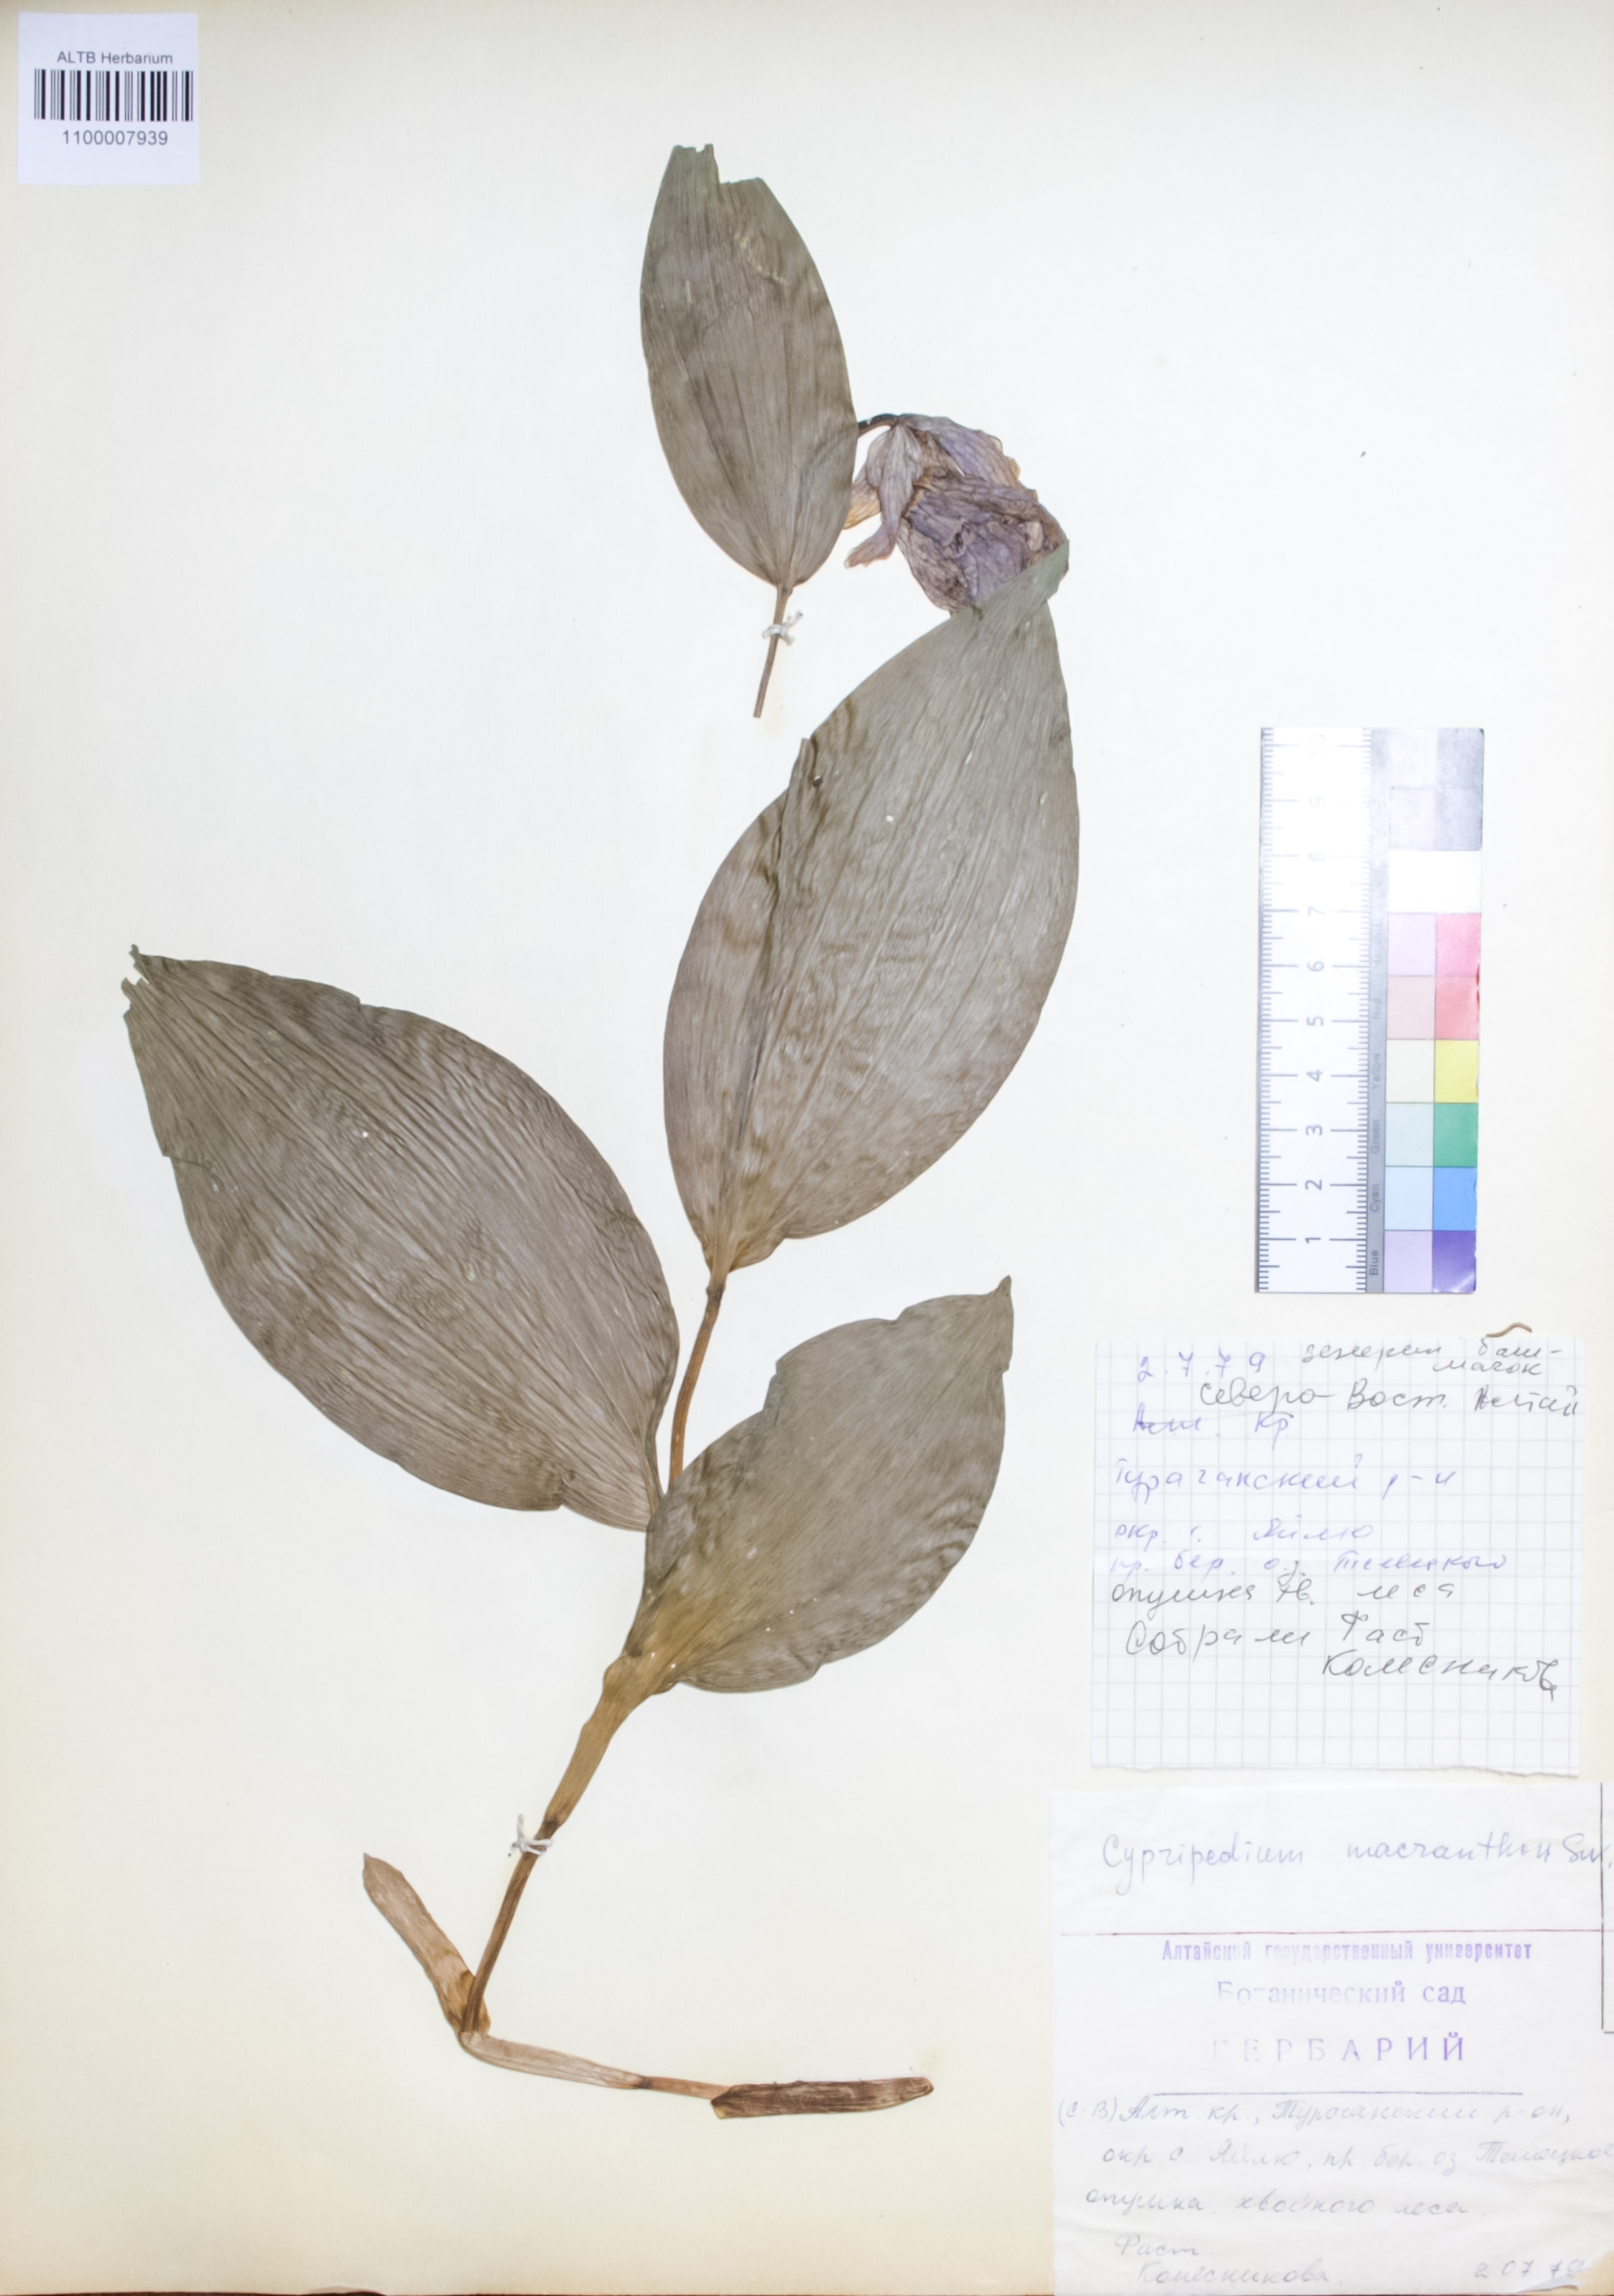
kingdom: Plantae
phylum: Tracheophyta
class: Liliopsida
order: Asparagales
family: Orchidaceae
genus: Cypripedium
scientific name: Cypripedium macranthon
